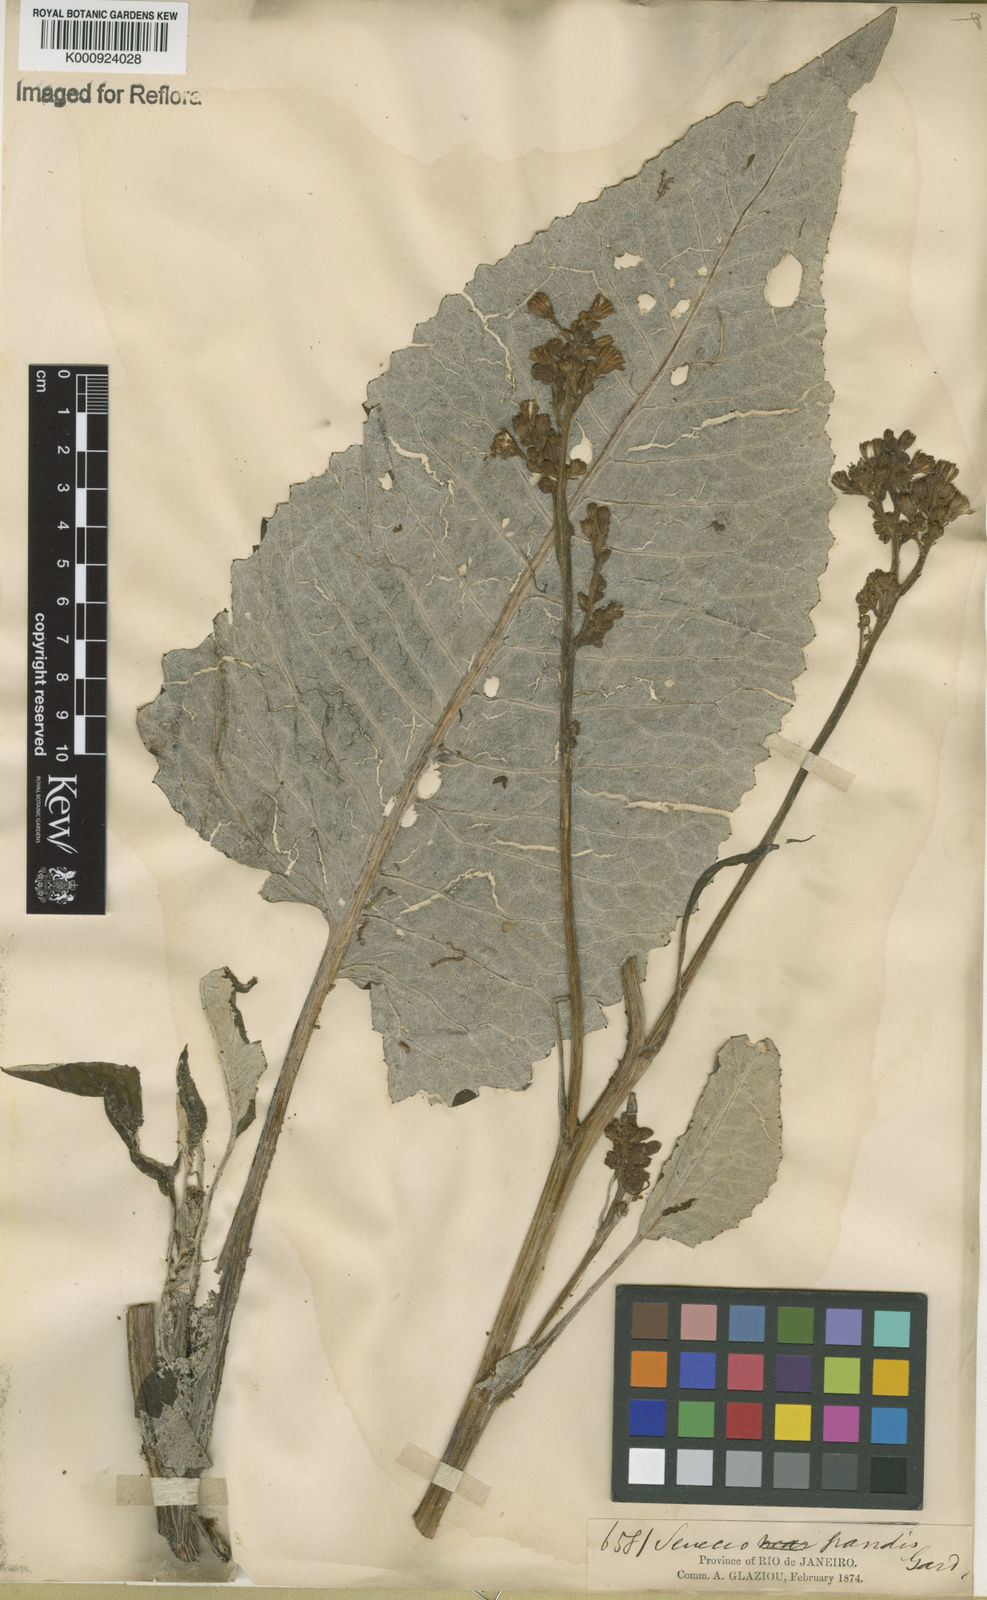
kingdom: Plantae
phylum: Tracheophyta
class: Magnoliopsida
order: Asterales
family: Asteraceae
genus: Senecio
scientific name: Senecio grandis
